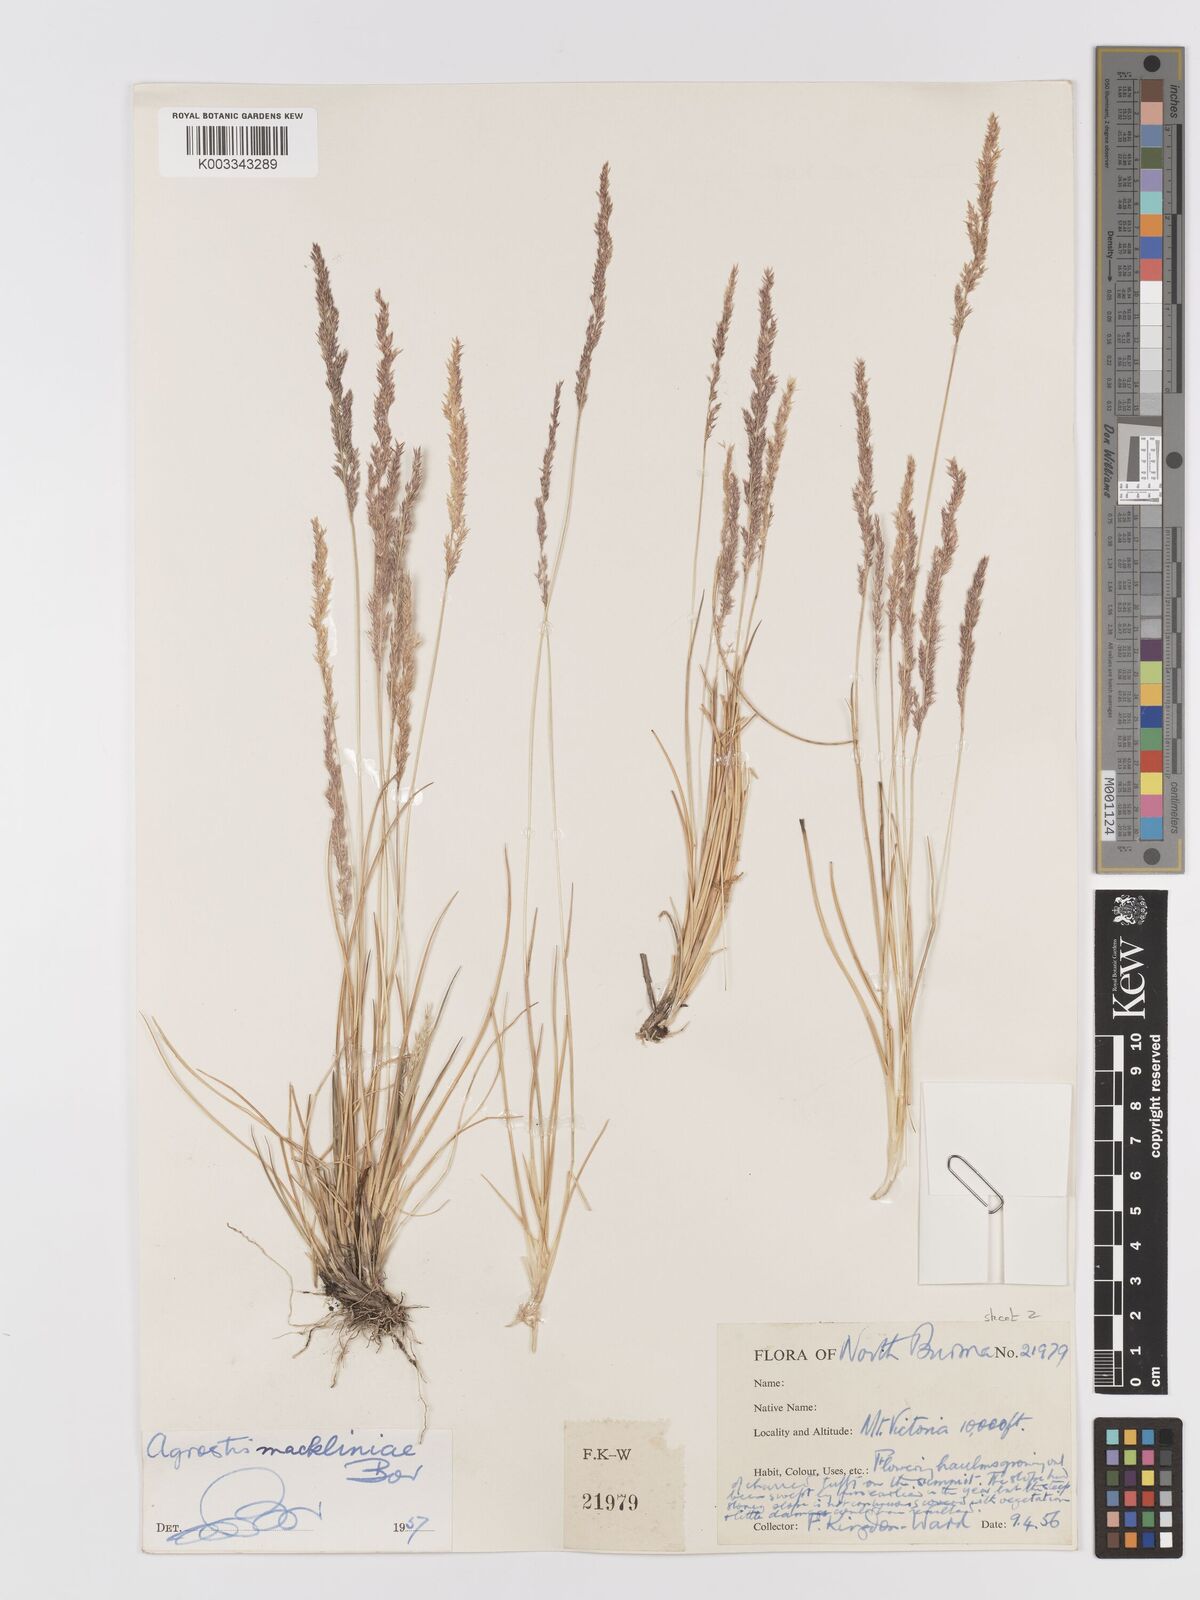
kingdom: Plantae
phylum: Tracheophyta
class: Liliopsida
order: Poales
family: Poaceae
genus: Agrostis
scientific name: Agrostis
